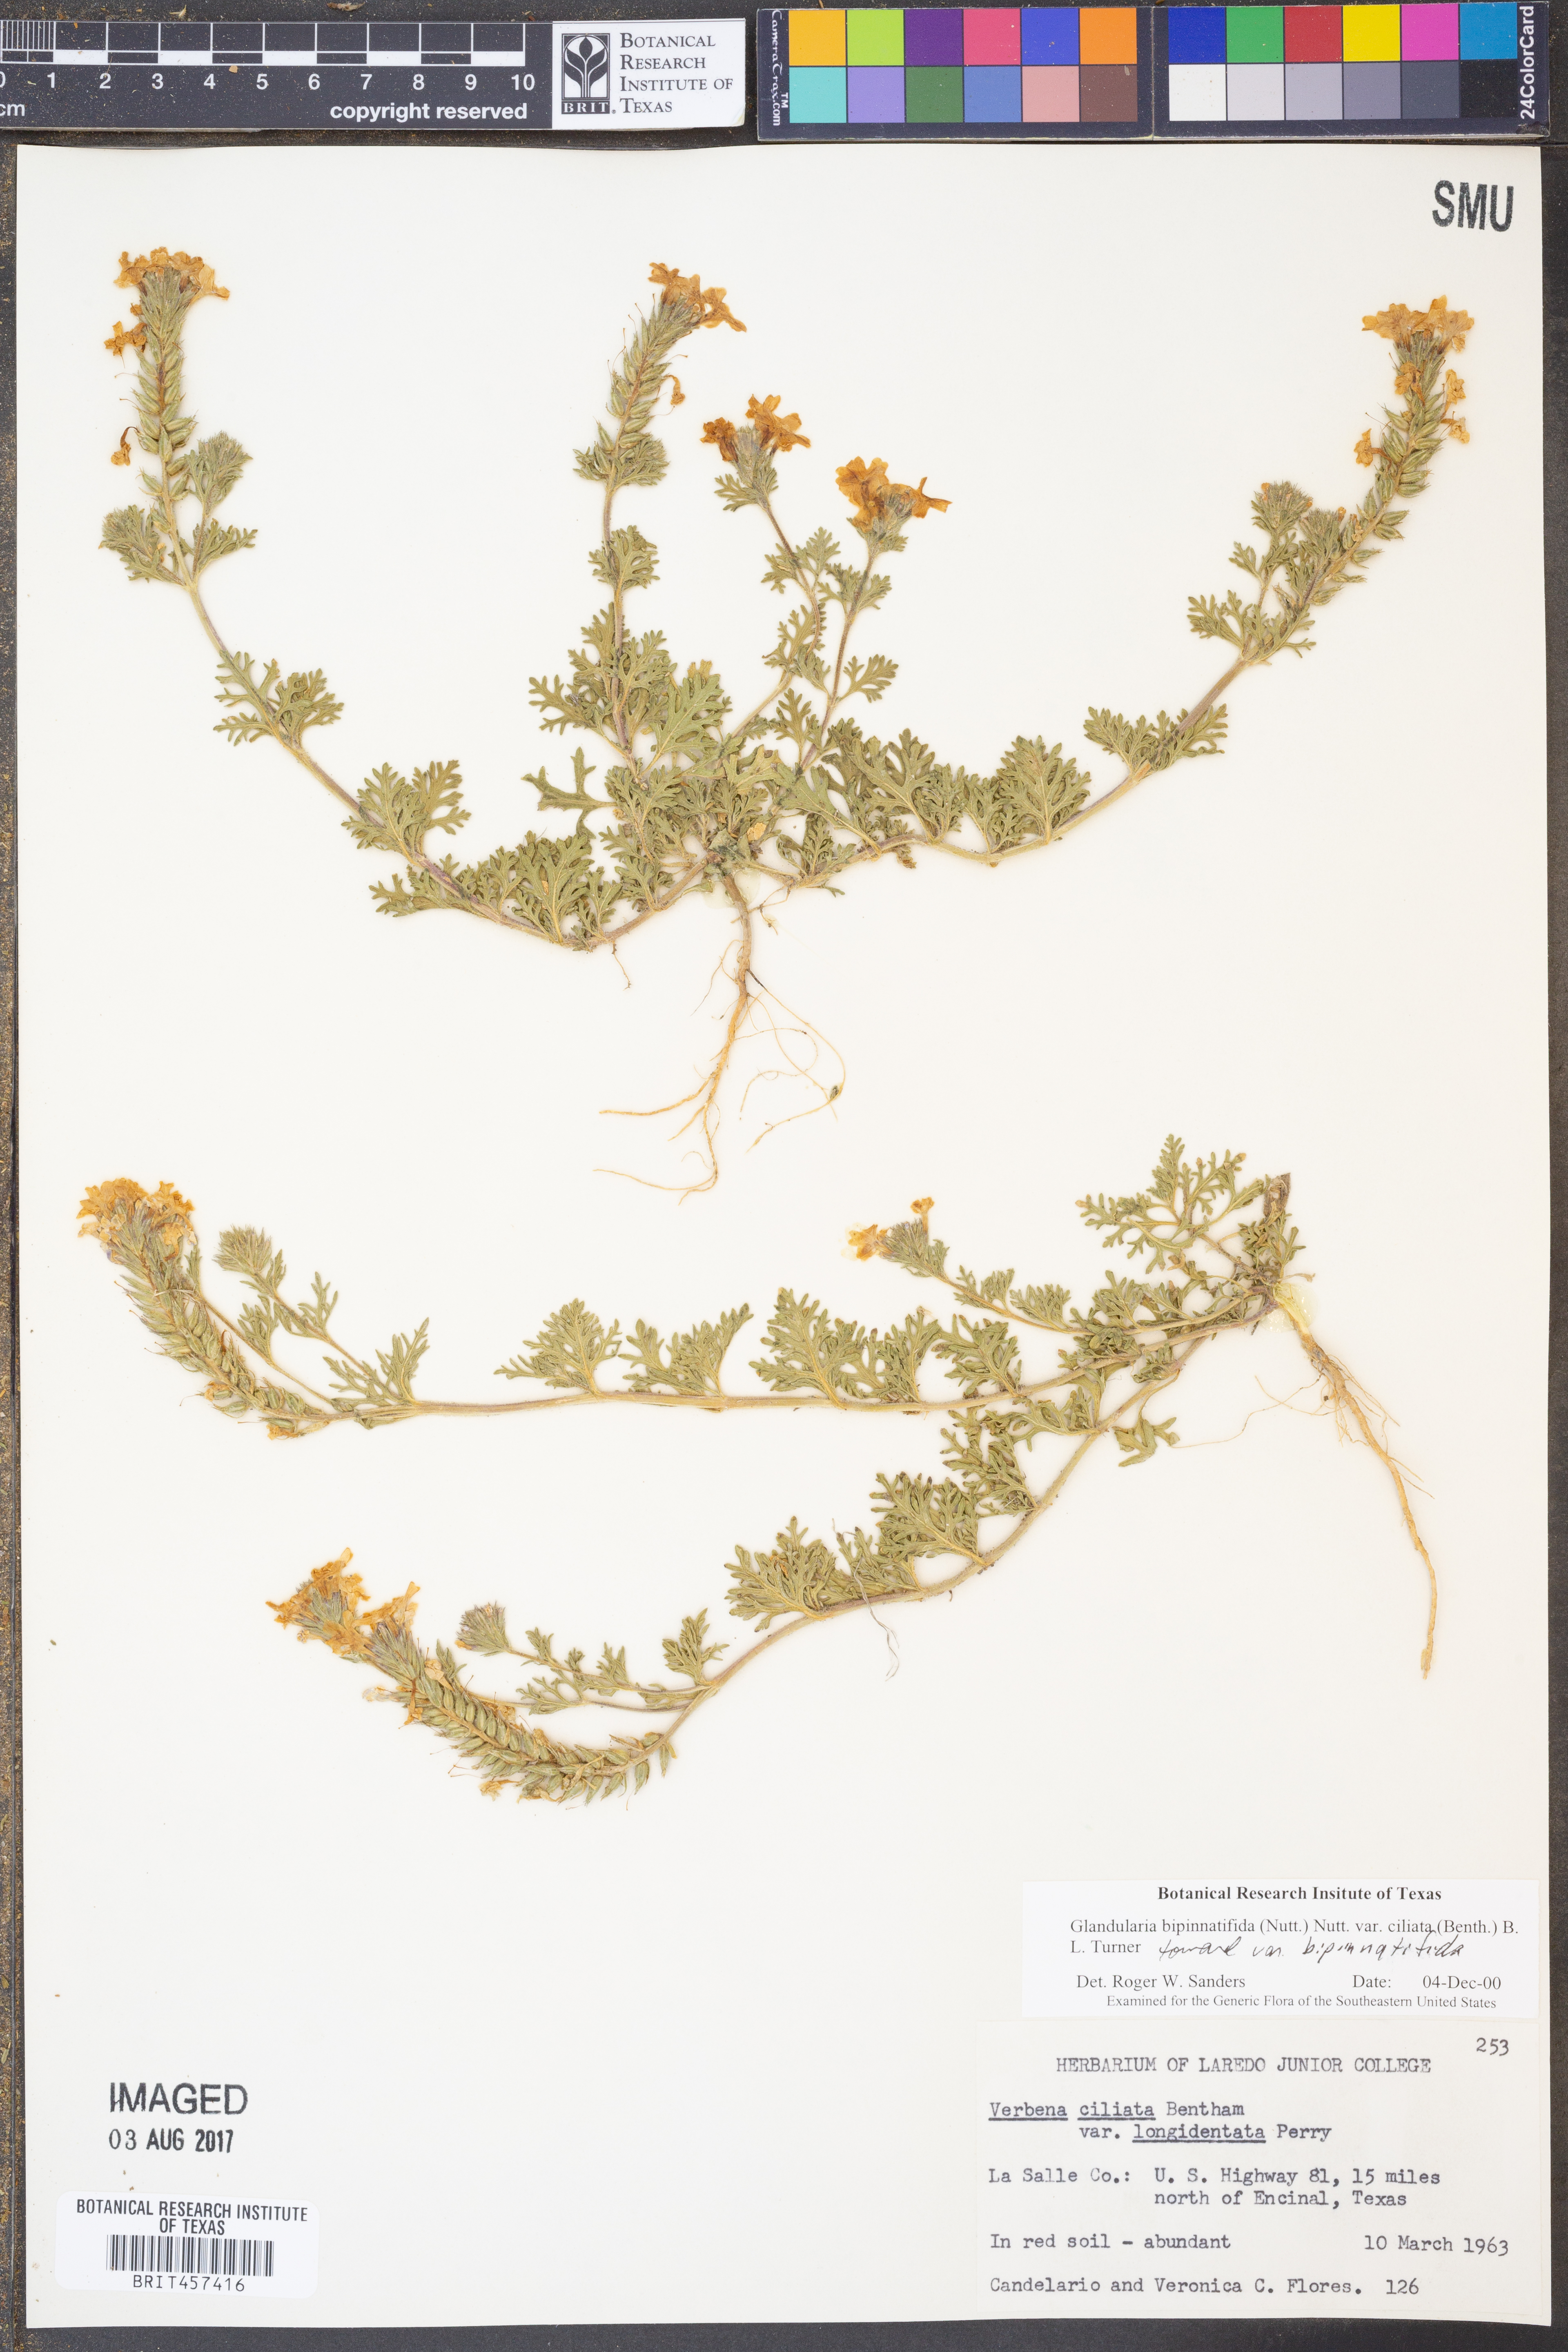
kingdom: Plantae
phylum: Tracheophyta
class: Magnoliopsida
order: Lamiales
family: Verbenaceae
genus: Verbena
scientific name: Verbena bipinnatifida
